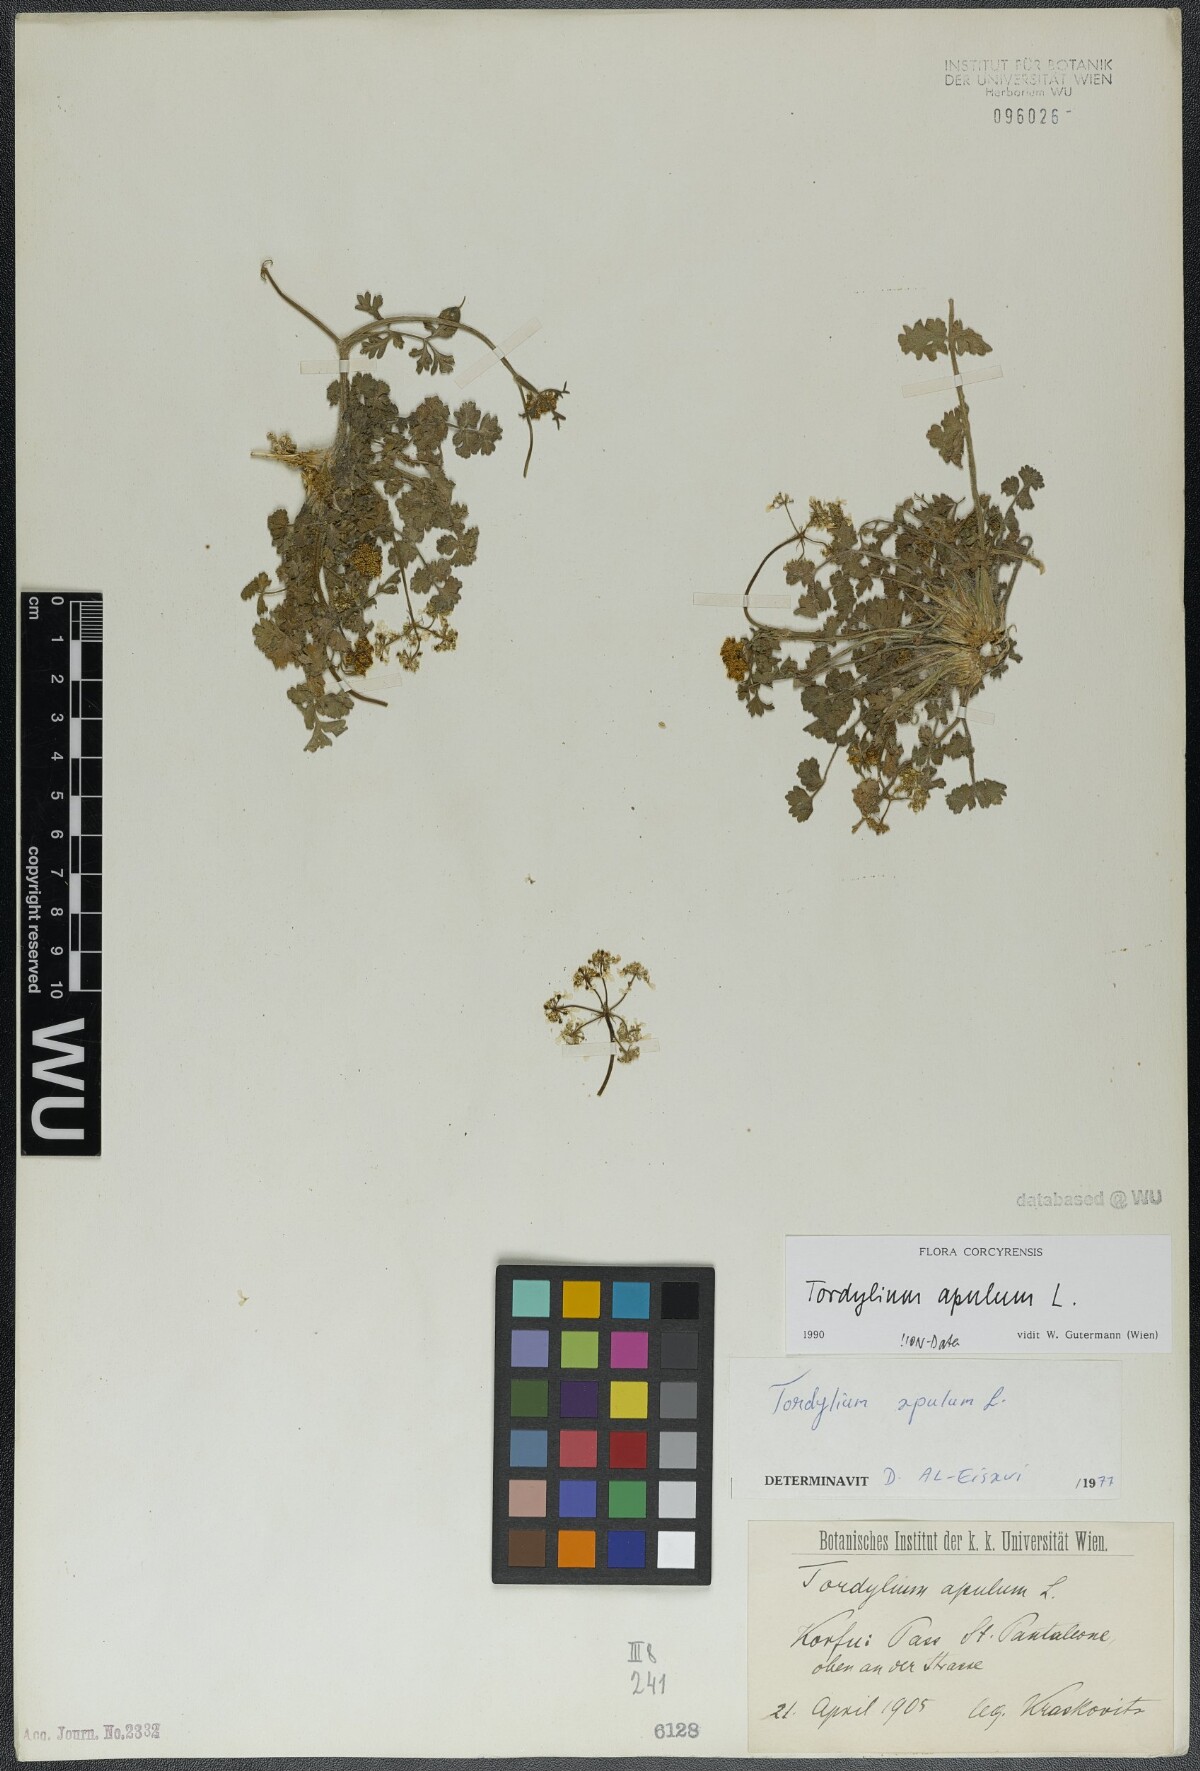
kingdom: Plantae
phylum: Tracheophyta
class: Magnoliopsida
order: Apiales
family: Apiaceae
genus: Tordylium
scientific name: Tordylium apulum
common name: Mediterranean hartwort
